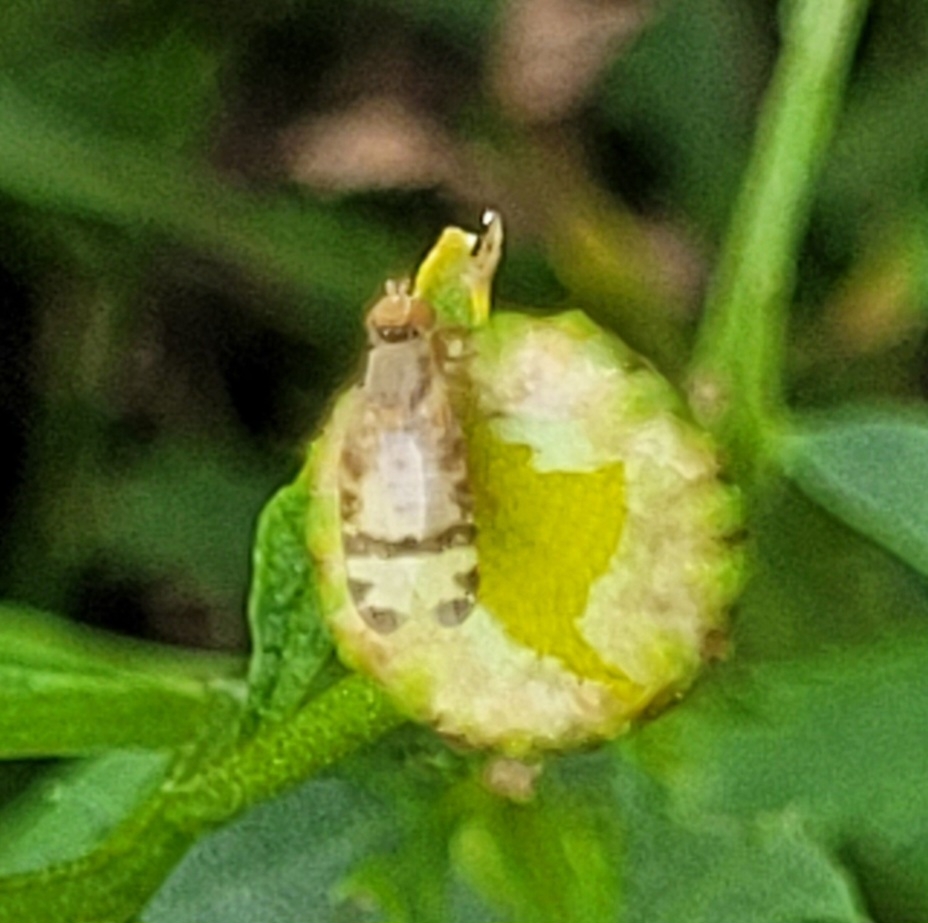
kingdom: Animalia
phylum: Arthropoda
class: Insecta
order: Diptera
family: Tephritidae
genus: Sphenella
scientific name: Sphenella marginata
